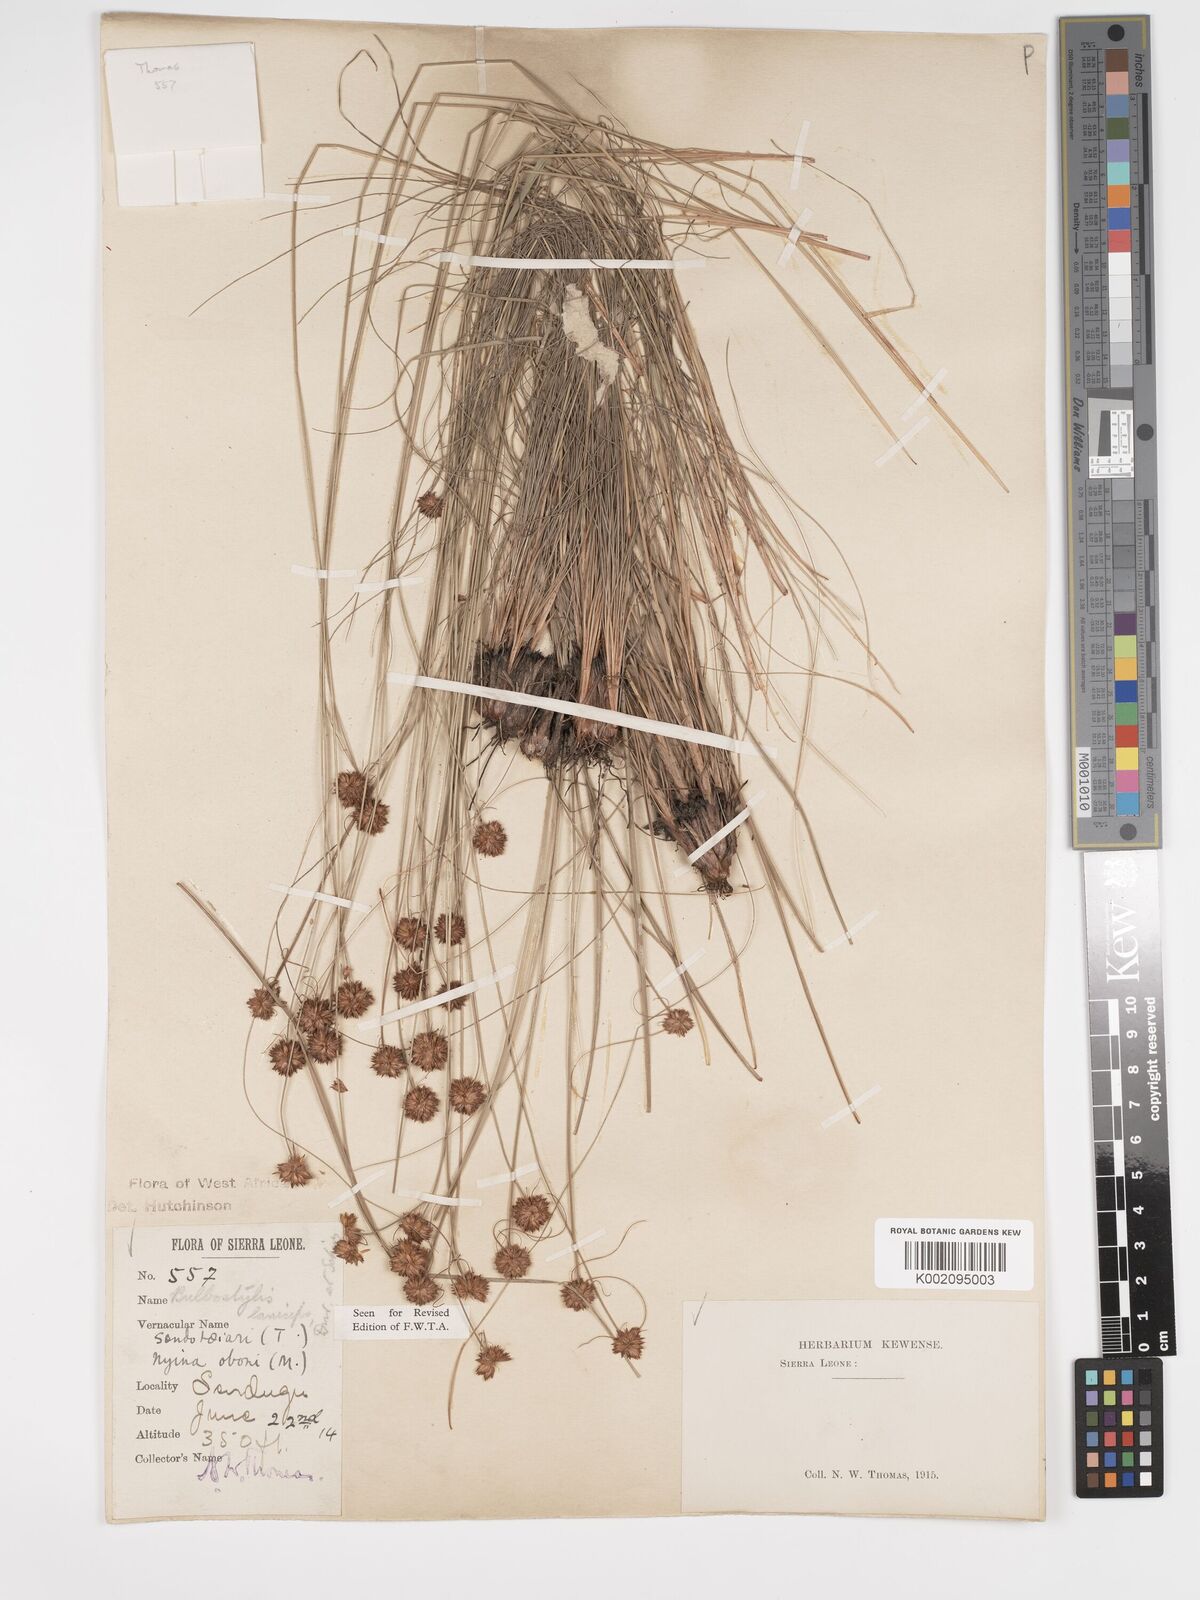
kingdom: Plantae
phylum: Tracheophyta
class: Liliopsida
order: Poales
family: Cyperaceae
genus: Bulbostylis
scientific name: Bulbostylis laniceps
